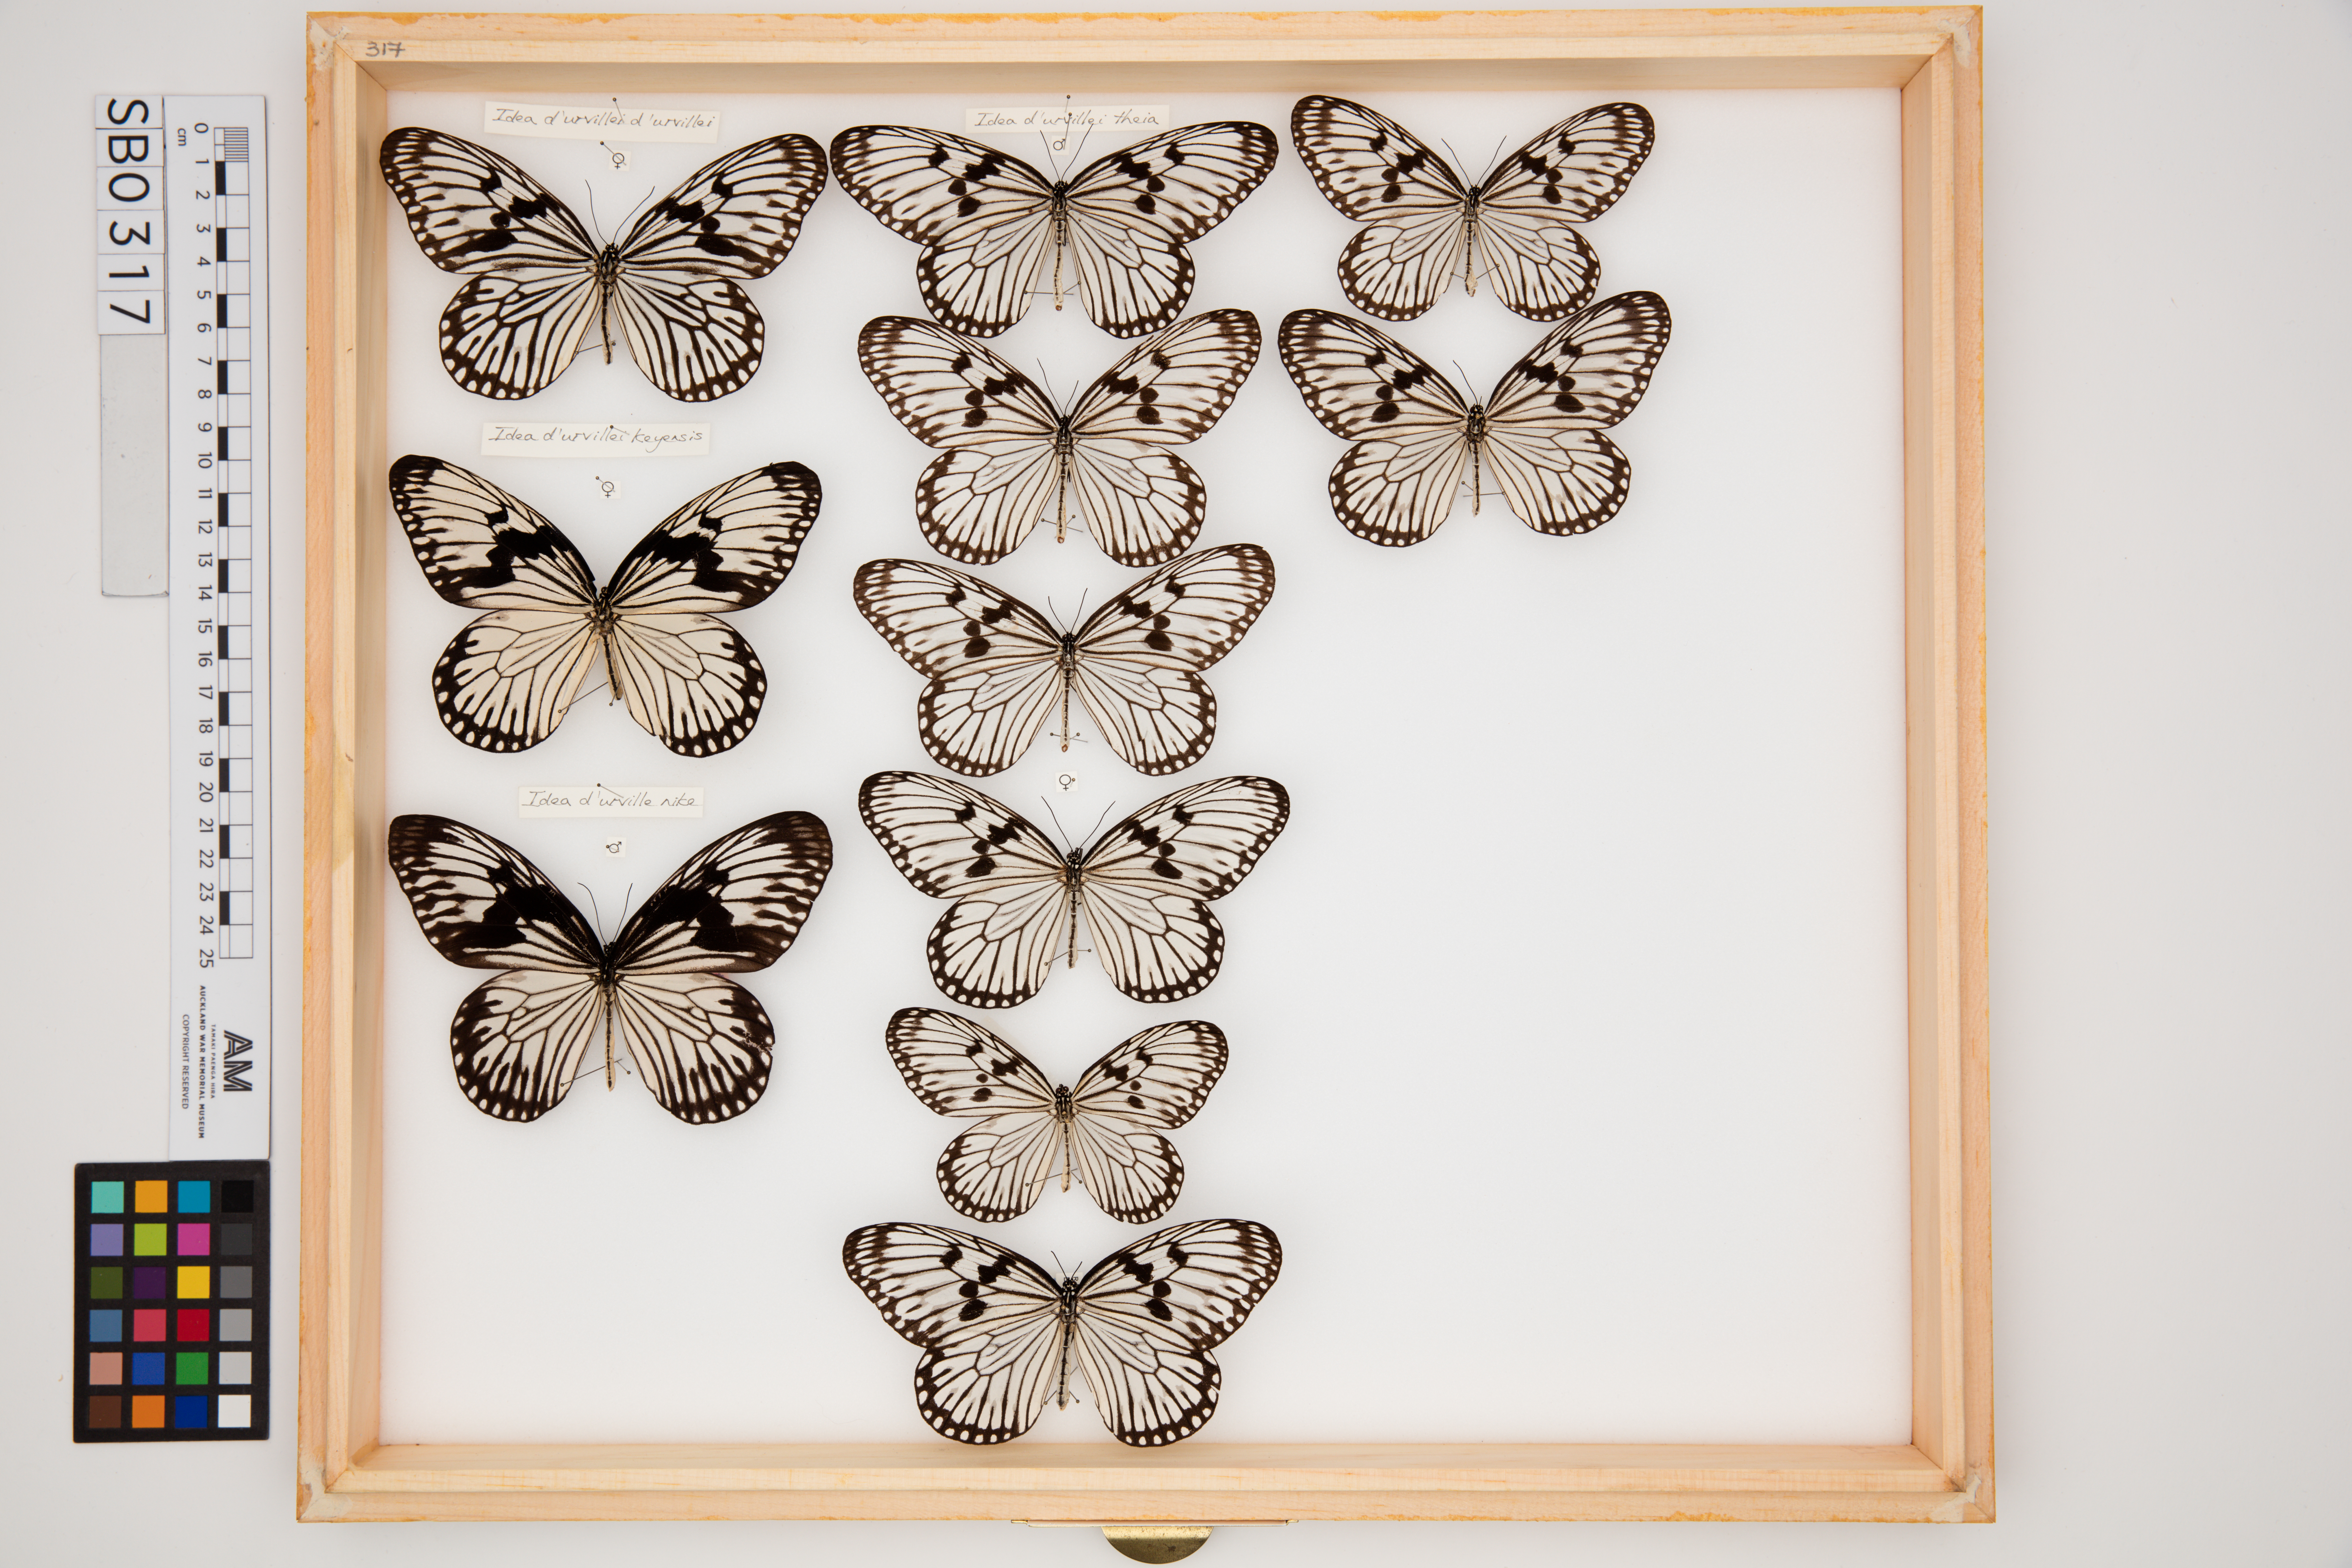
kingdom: Animalia
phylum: Arthropoda
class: Insecta
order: Lepidoptera
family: Nymphalidae
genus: Idea
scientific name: Idea durvillei
